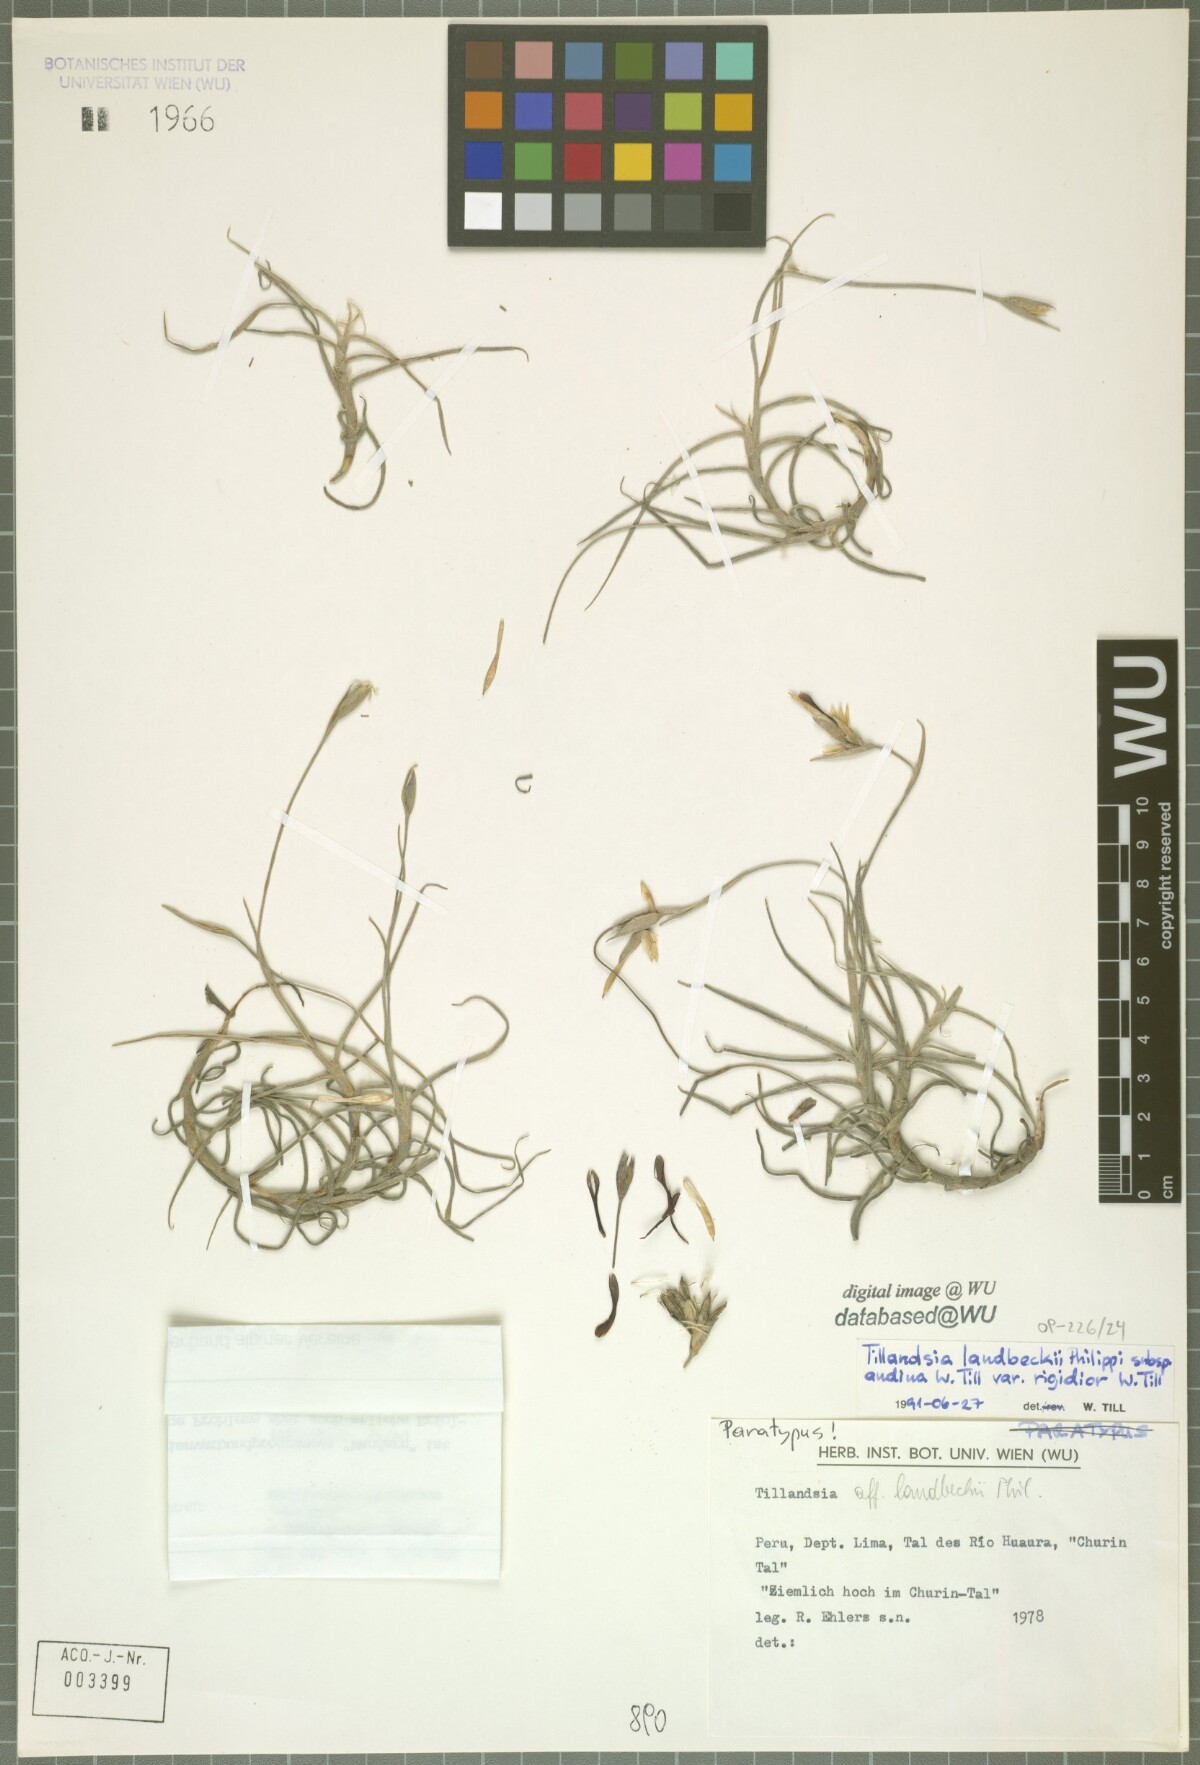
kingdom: Plantae
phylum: Tracheophyta
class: Liliopsida
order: Poales
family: Bromeliaceae
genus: Tillandsia
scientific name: Tillandsia landbeckii
